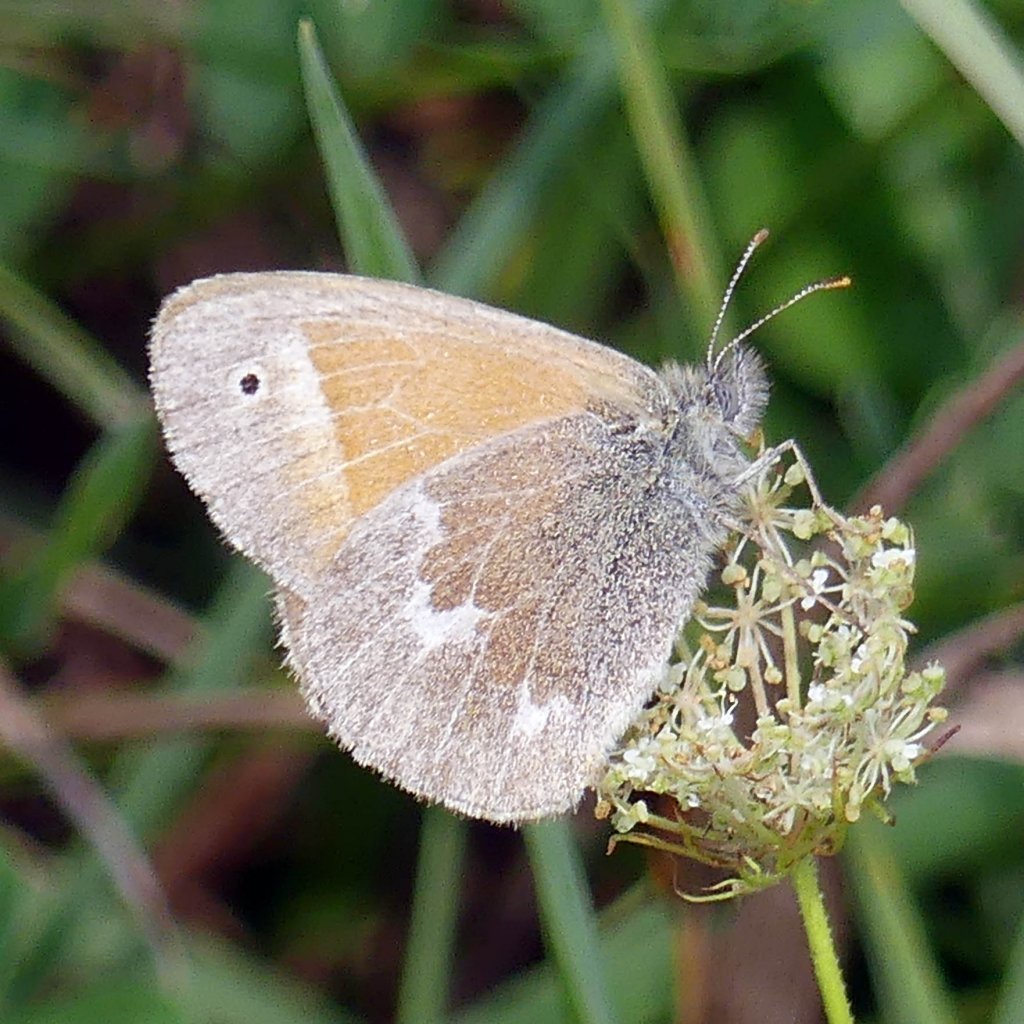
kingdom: Animalia
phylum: Arthropoda
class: Insecta
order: Lepidoptera
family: Nymphalidae
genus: Coenonympha
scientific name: Coenonympha tullia
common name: Large Heath
